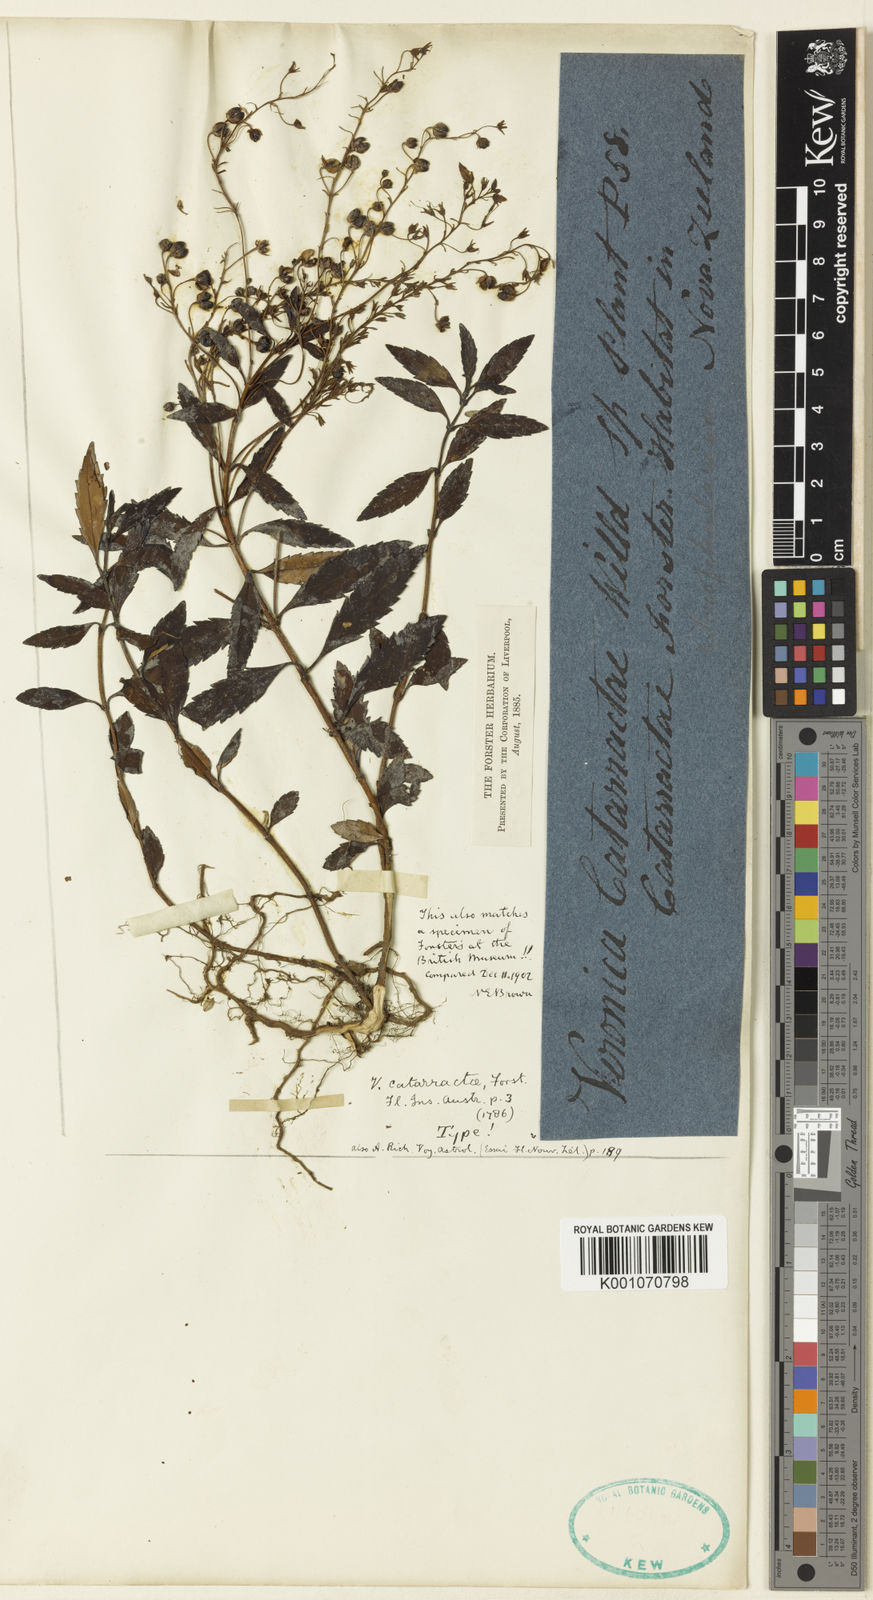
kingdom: Plantae
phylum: Tracheophyta
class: Magnoliopsida
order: Lamiales
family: Plantaginaceae
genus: Veronica
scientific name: Veronica catarractae
